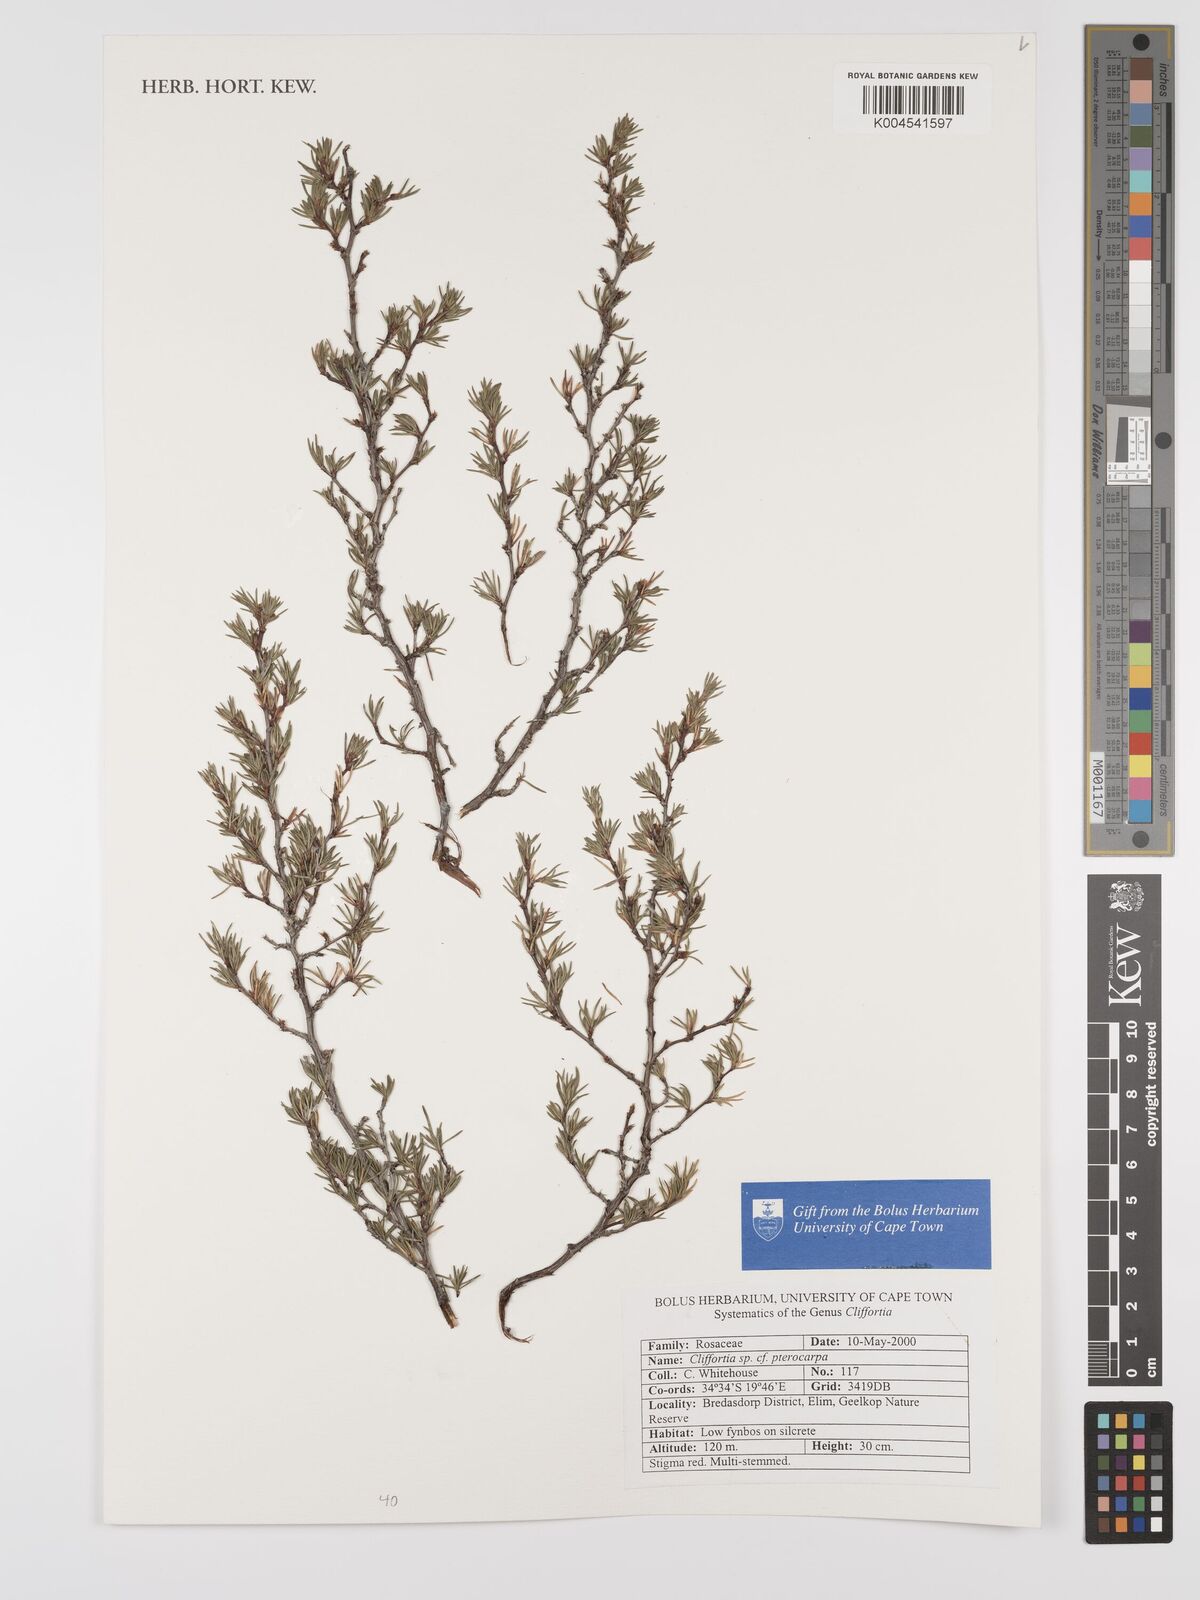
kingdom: Plantae
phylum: Tracheophyta
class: Magnoliopsida
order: Rosales
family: Rosaceae
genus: Cliffortia
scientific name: Cliffortia pterocarpa
